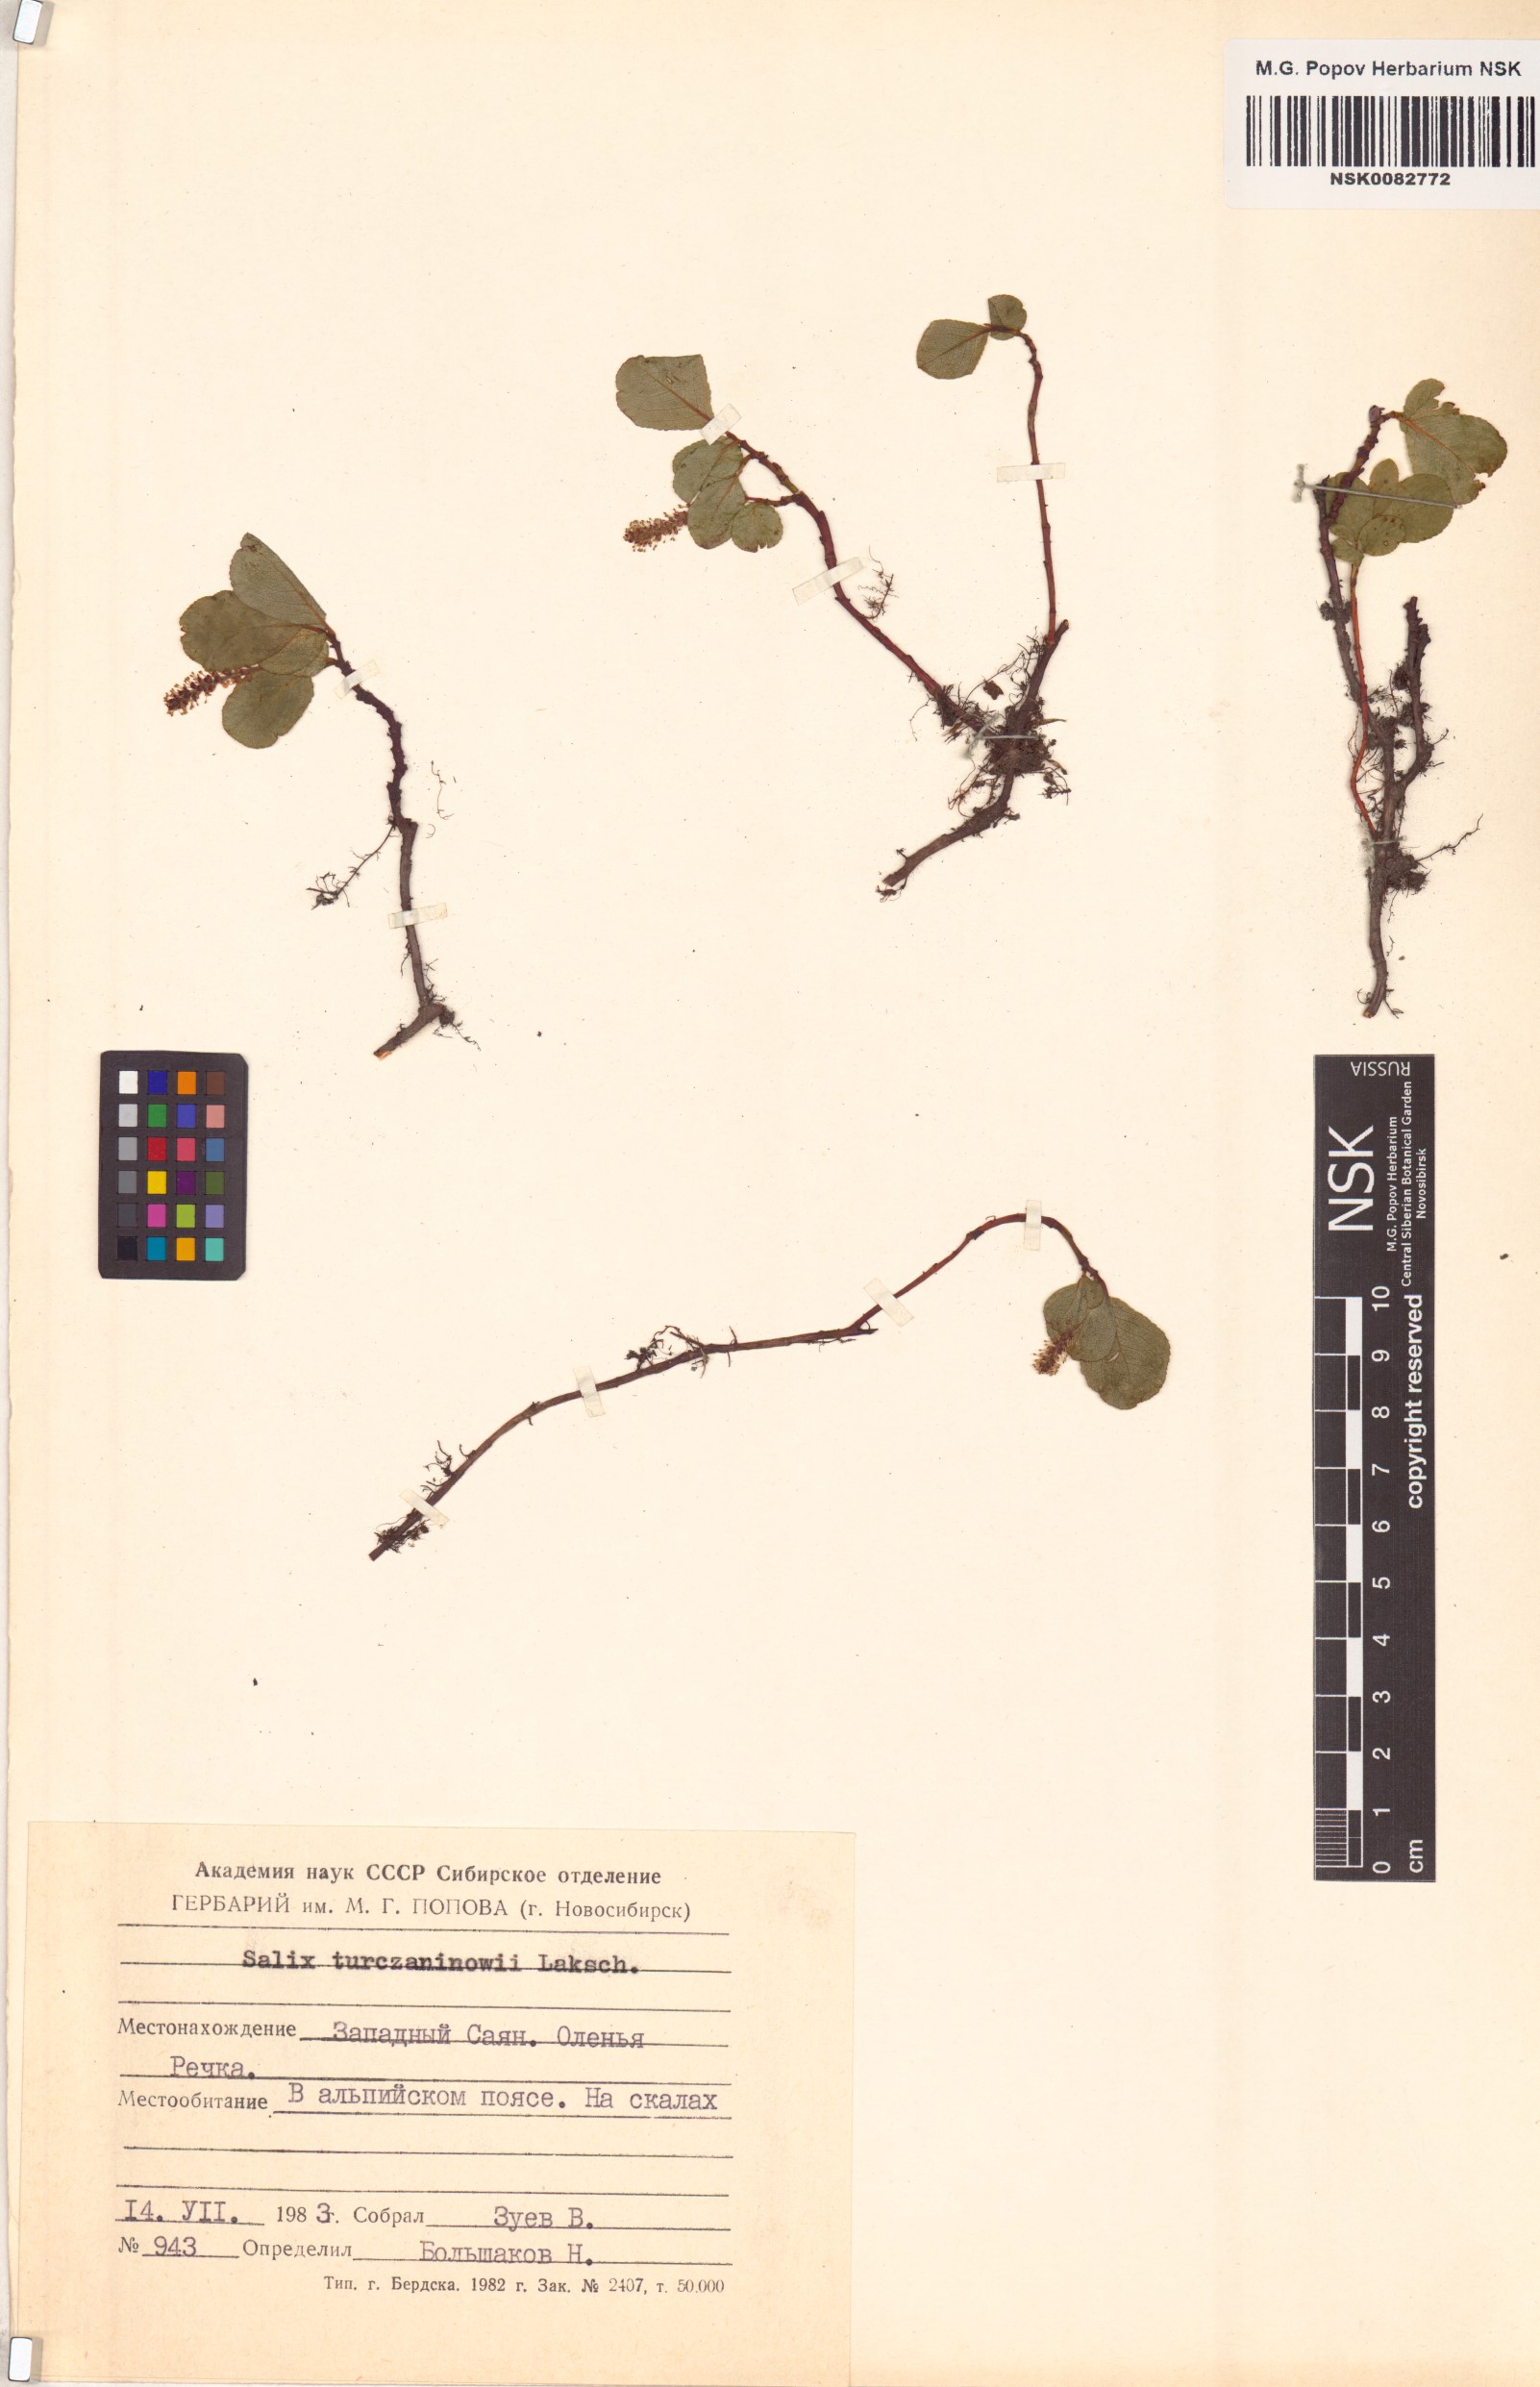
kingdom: Plantae
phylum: Tracheophyta
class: Magnoliopsida
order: Malpighiales
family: Salicaceae
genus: Salix
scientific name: Salix turczaninowii
